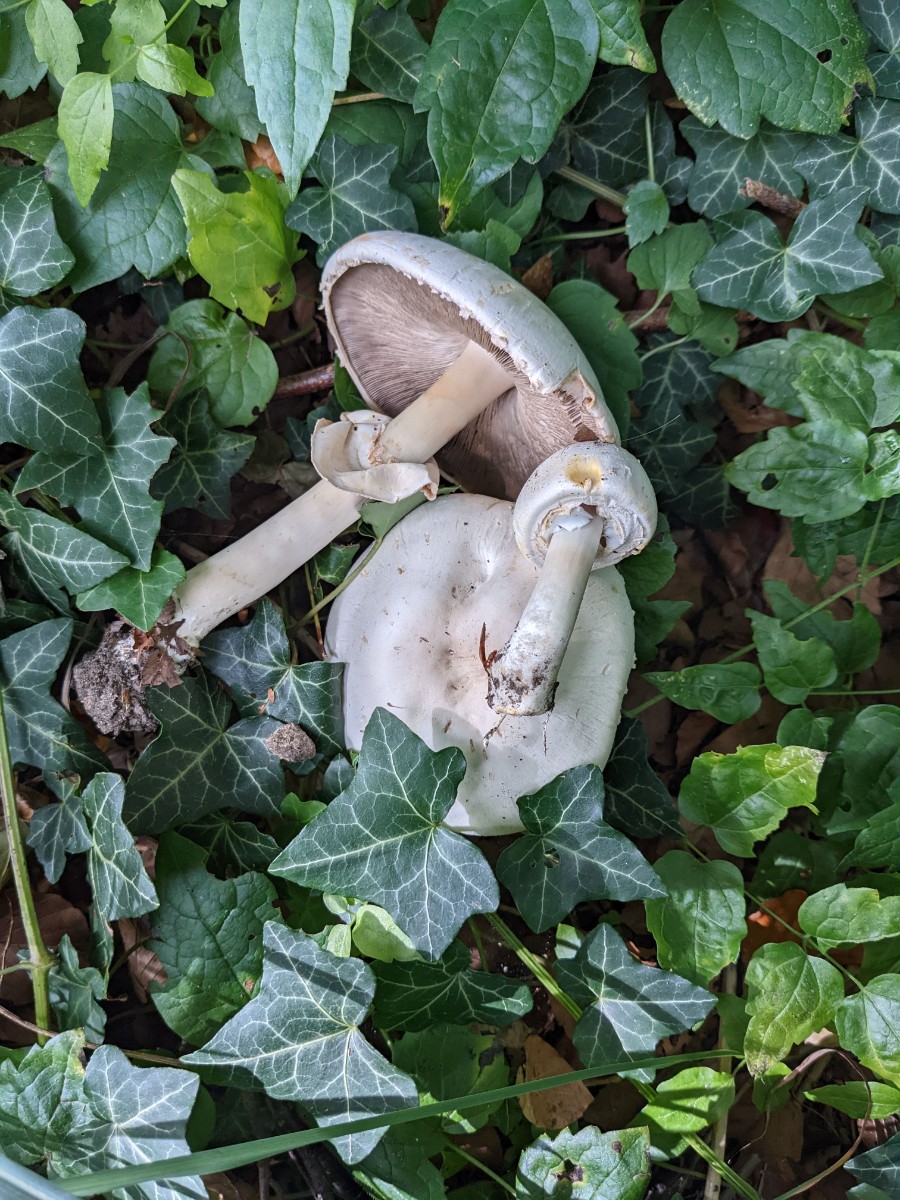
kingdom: Fungi
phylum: Basidiomycota
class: Agaricomycetes
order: Agaricales
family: Agaricaceae
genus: Agaricus
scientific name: Agaricus xanthodermus
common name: karbol-champignon
